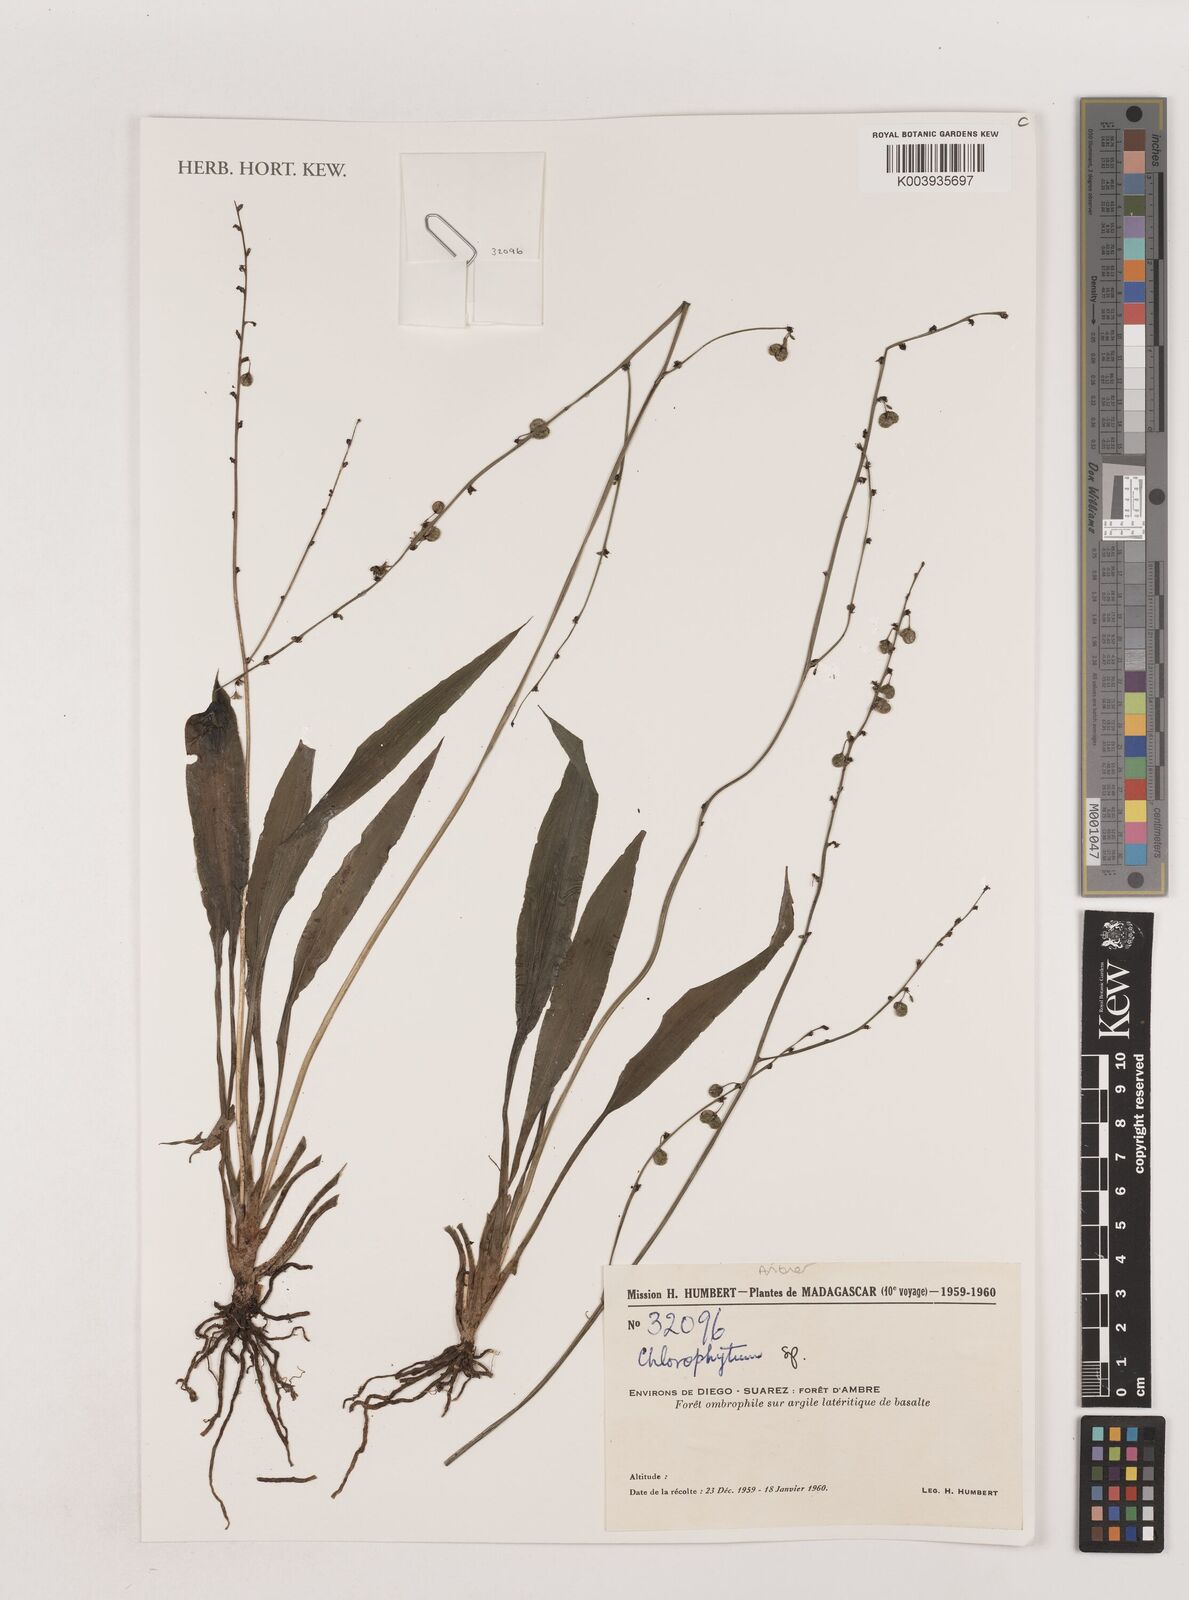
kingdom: Plantae
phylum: Tracheophyta
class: Liliopsida
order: Asparagales
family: Asparagaceae
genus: Chlorophytum
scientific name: Chlorophytum
